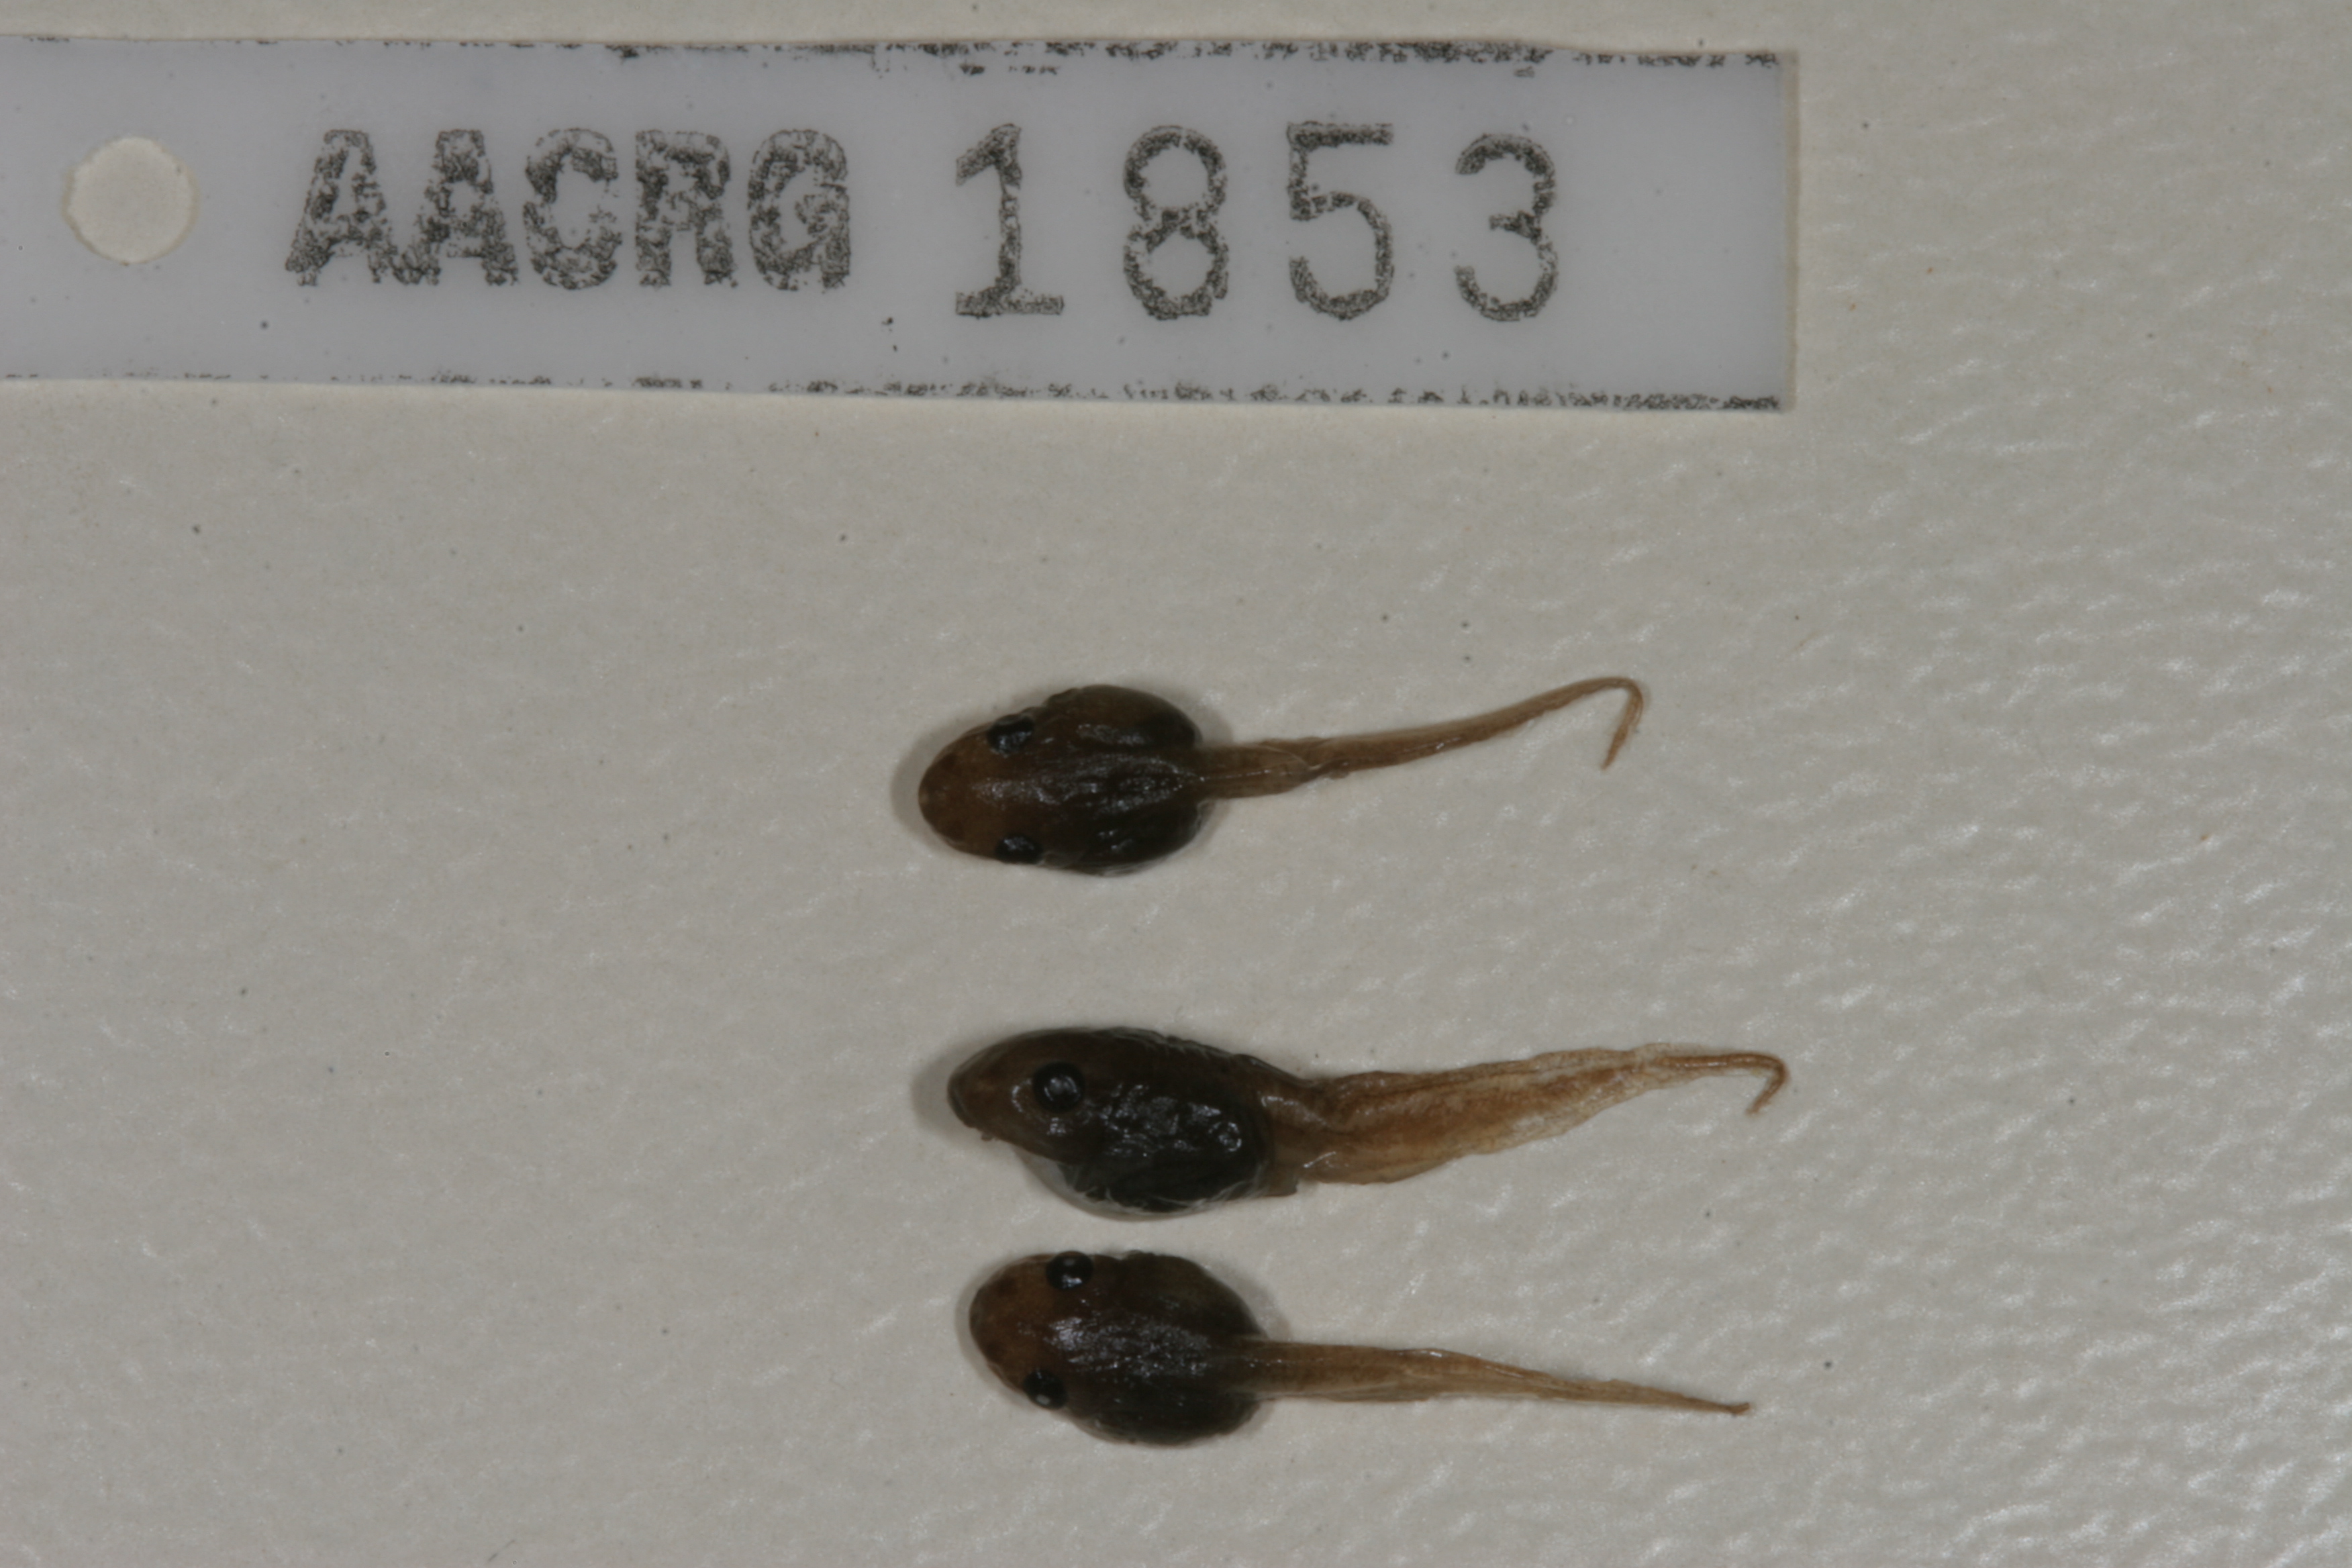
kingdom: Animalia
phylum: Chordata
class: Amphibia
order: Anura
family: Hemisotidae
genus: Hemisus
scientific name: Hemisus marmoratus
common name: Mottled shovel-nosed frog
